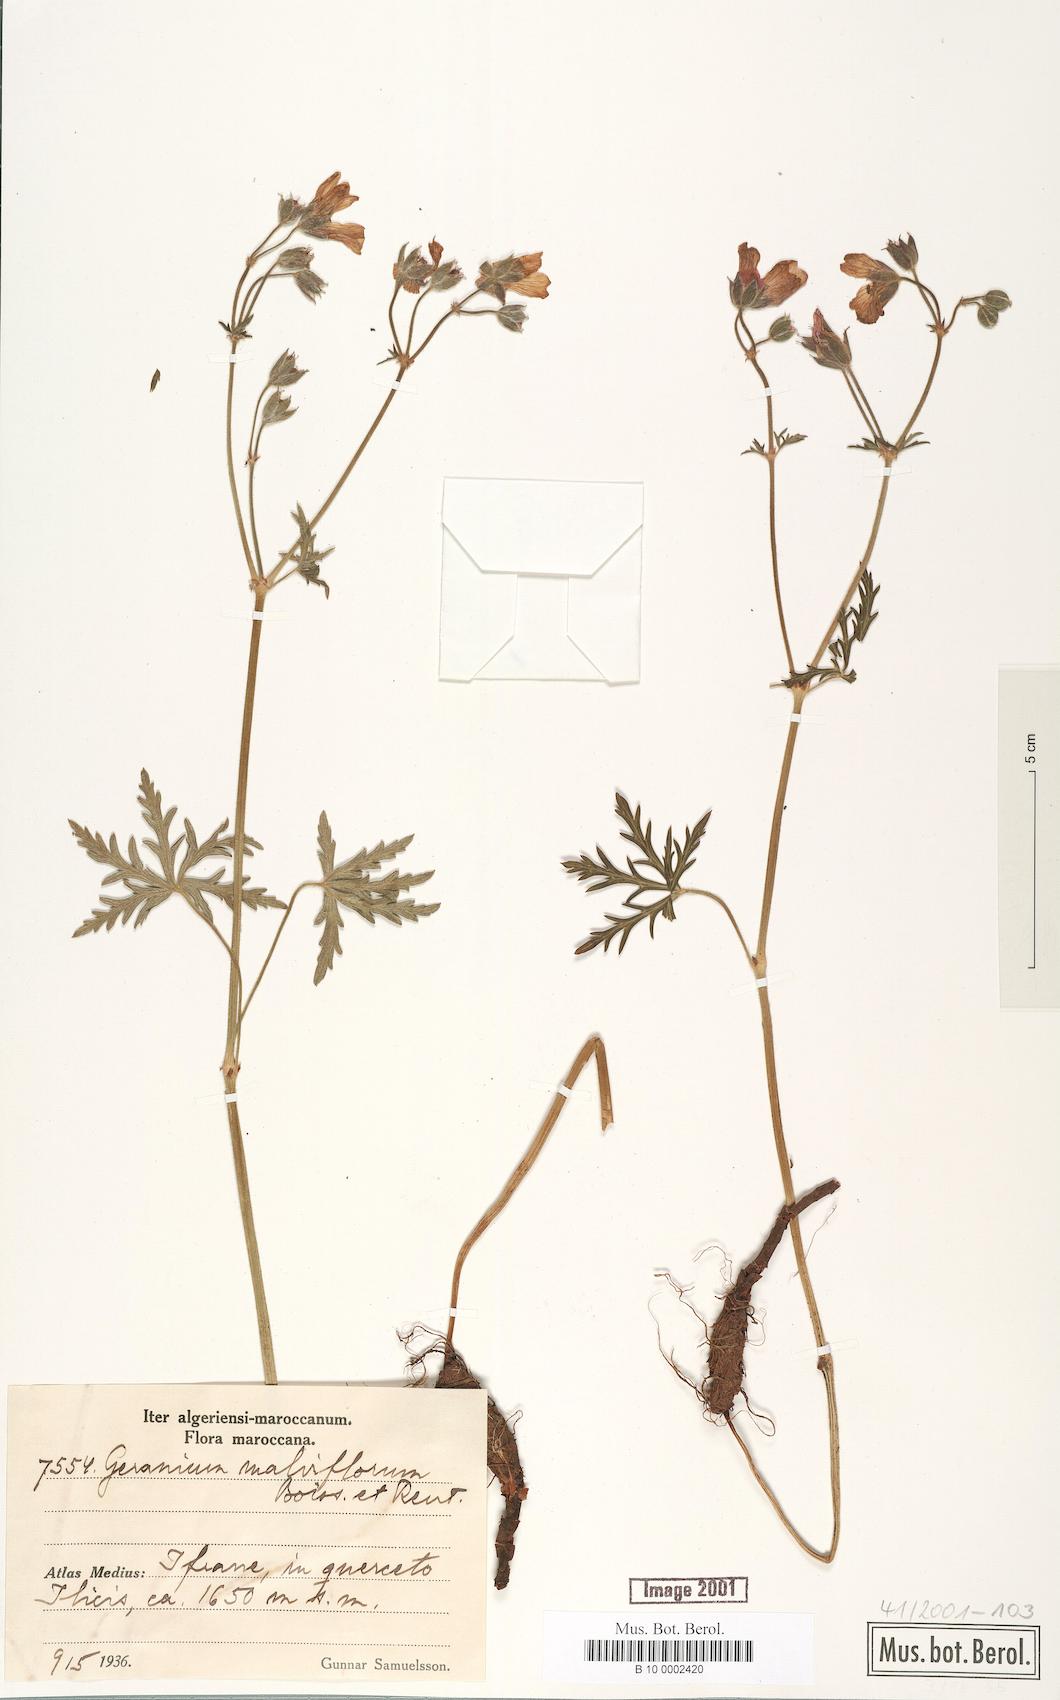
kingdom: Plantae
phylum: Tracheophyta
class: Magnoliopsida
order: Geraniales
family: Geraniaceae
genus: Geranium
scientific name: Geranium malviflorum
